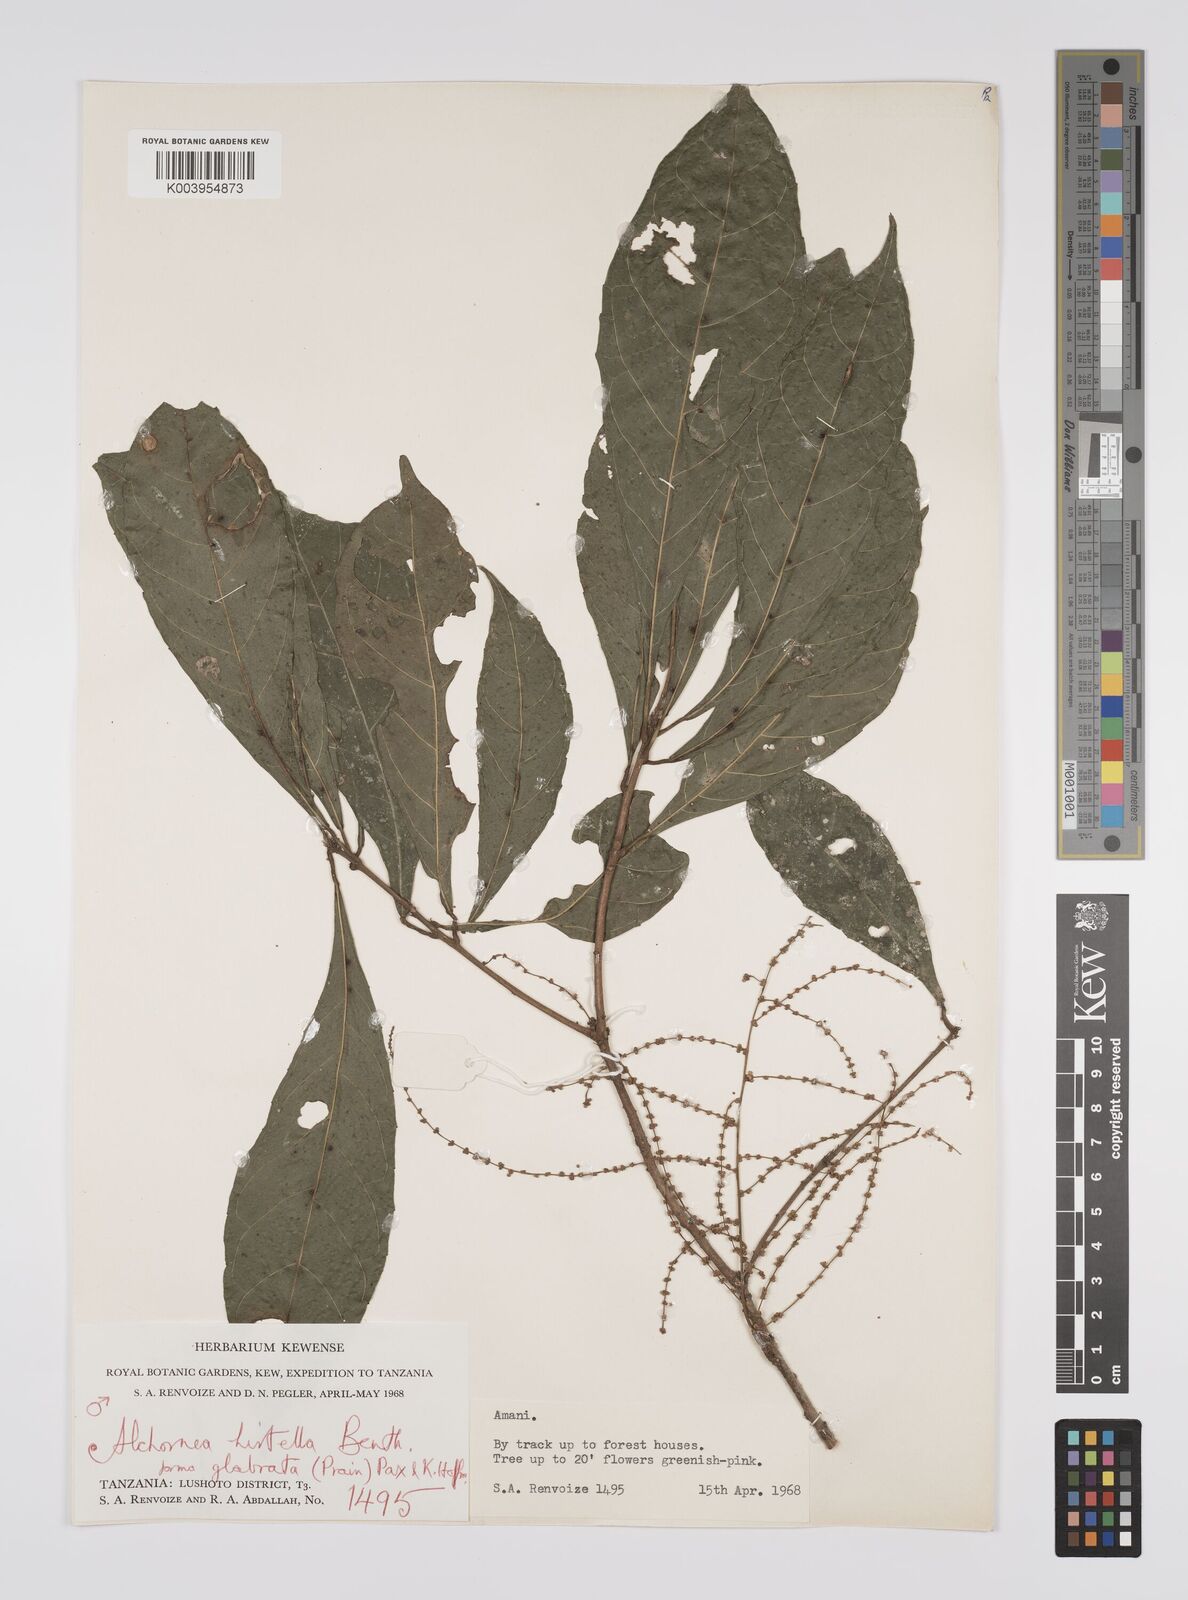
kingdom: Plantae
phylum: Tracheophyta
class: Magnoliopsida
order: Malpighiales
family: Euphorbiaceae
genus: Alchornea
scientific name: Alchornea hirtella
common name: Forest bead-string
